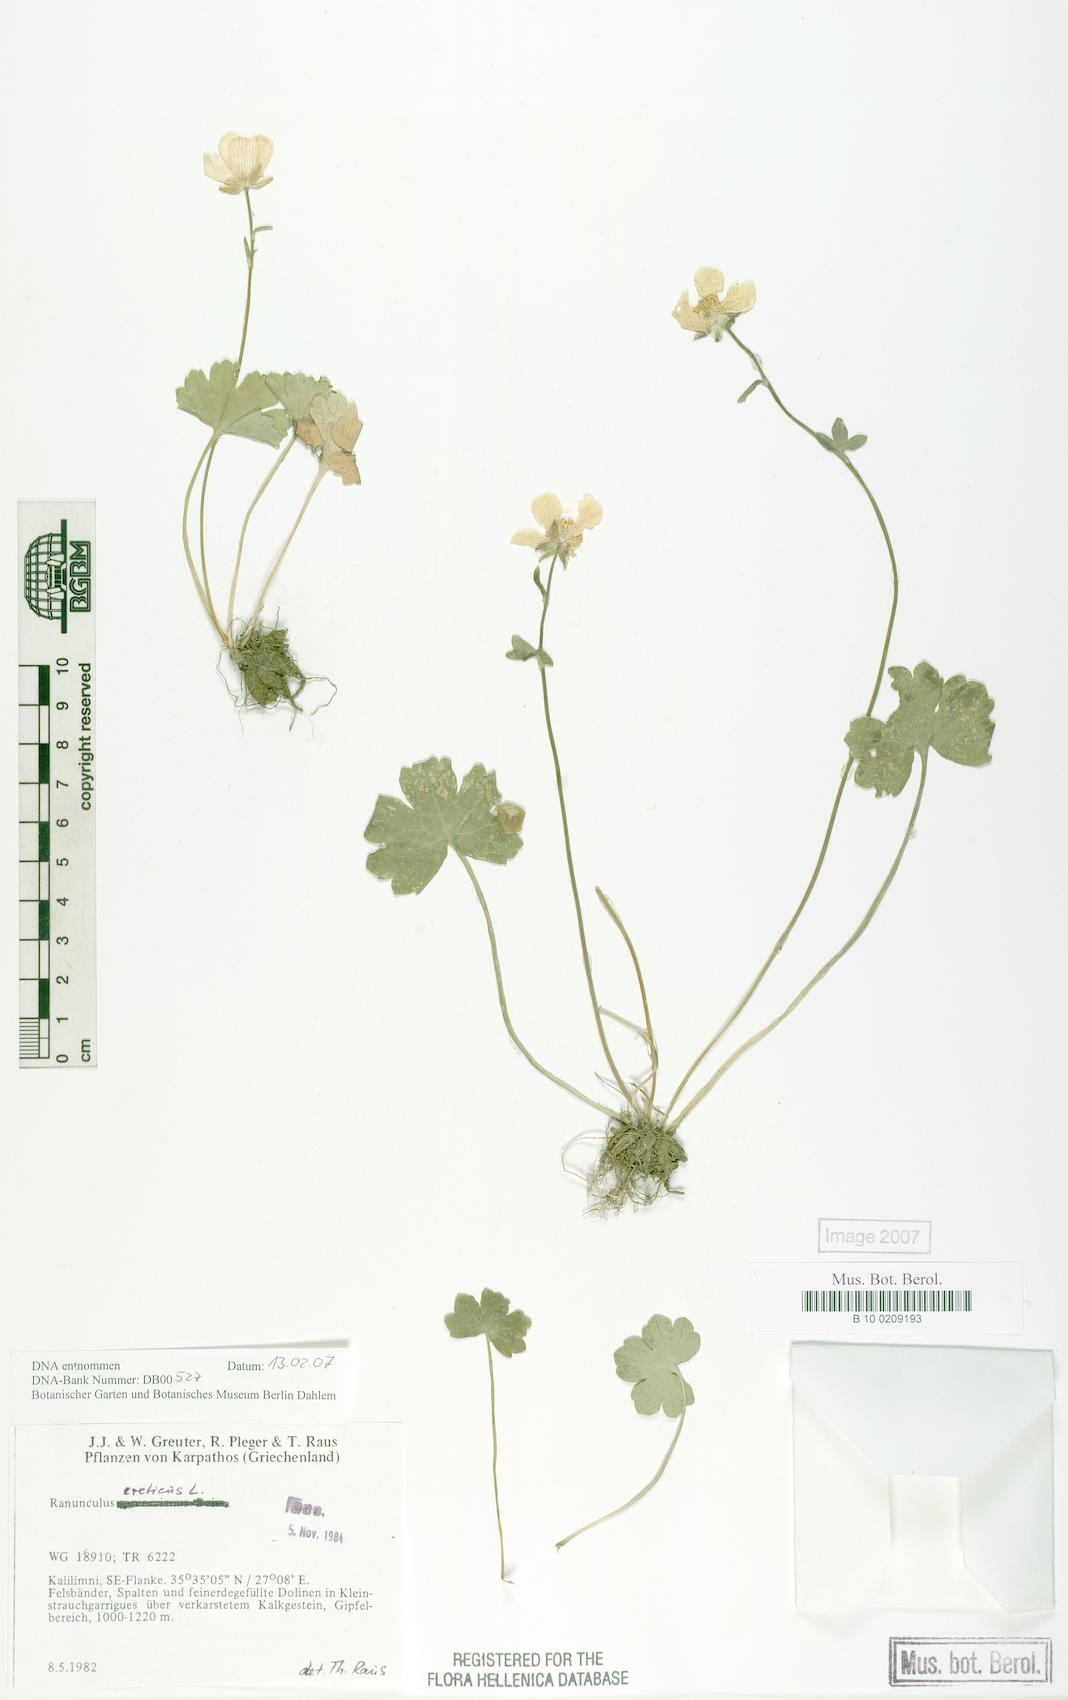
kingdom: Plantae
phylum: Tracheophyta
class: Magnoliopsida
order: Ranunculales
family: Ranunculaceae
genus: Ranunculus
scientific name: Ranunculus creticus
